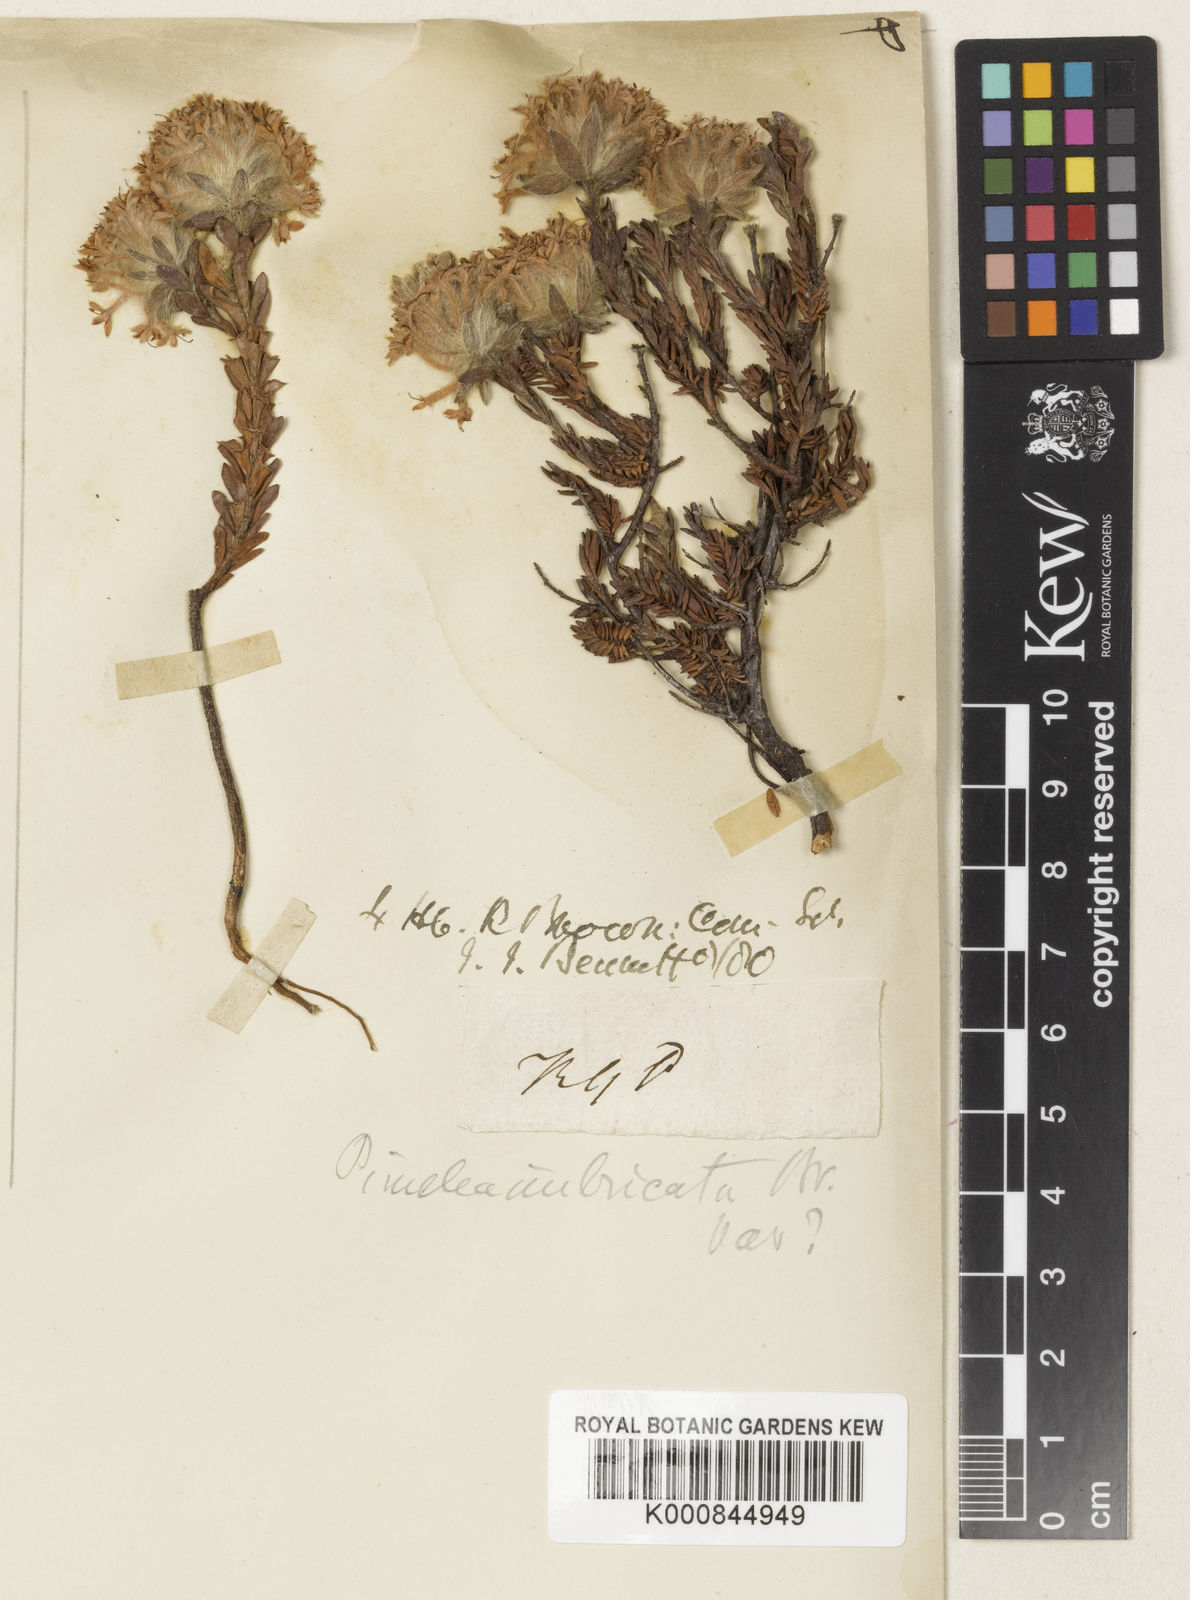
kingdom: Plantae
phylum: Tracheophyta
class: Magnoliopsida
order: Malvales
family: Thymelaeaceae
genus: Pimelea
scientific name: Pimelea imbricata
